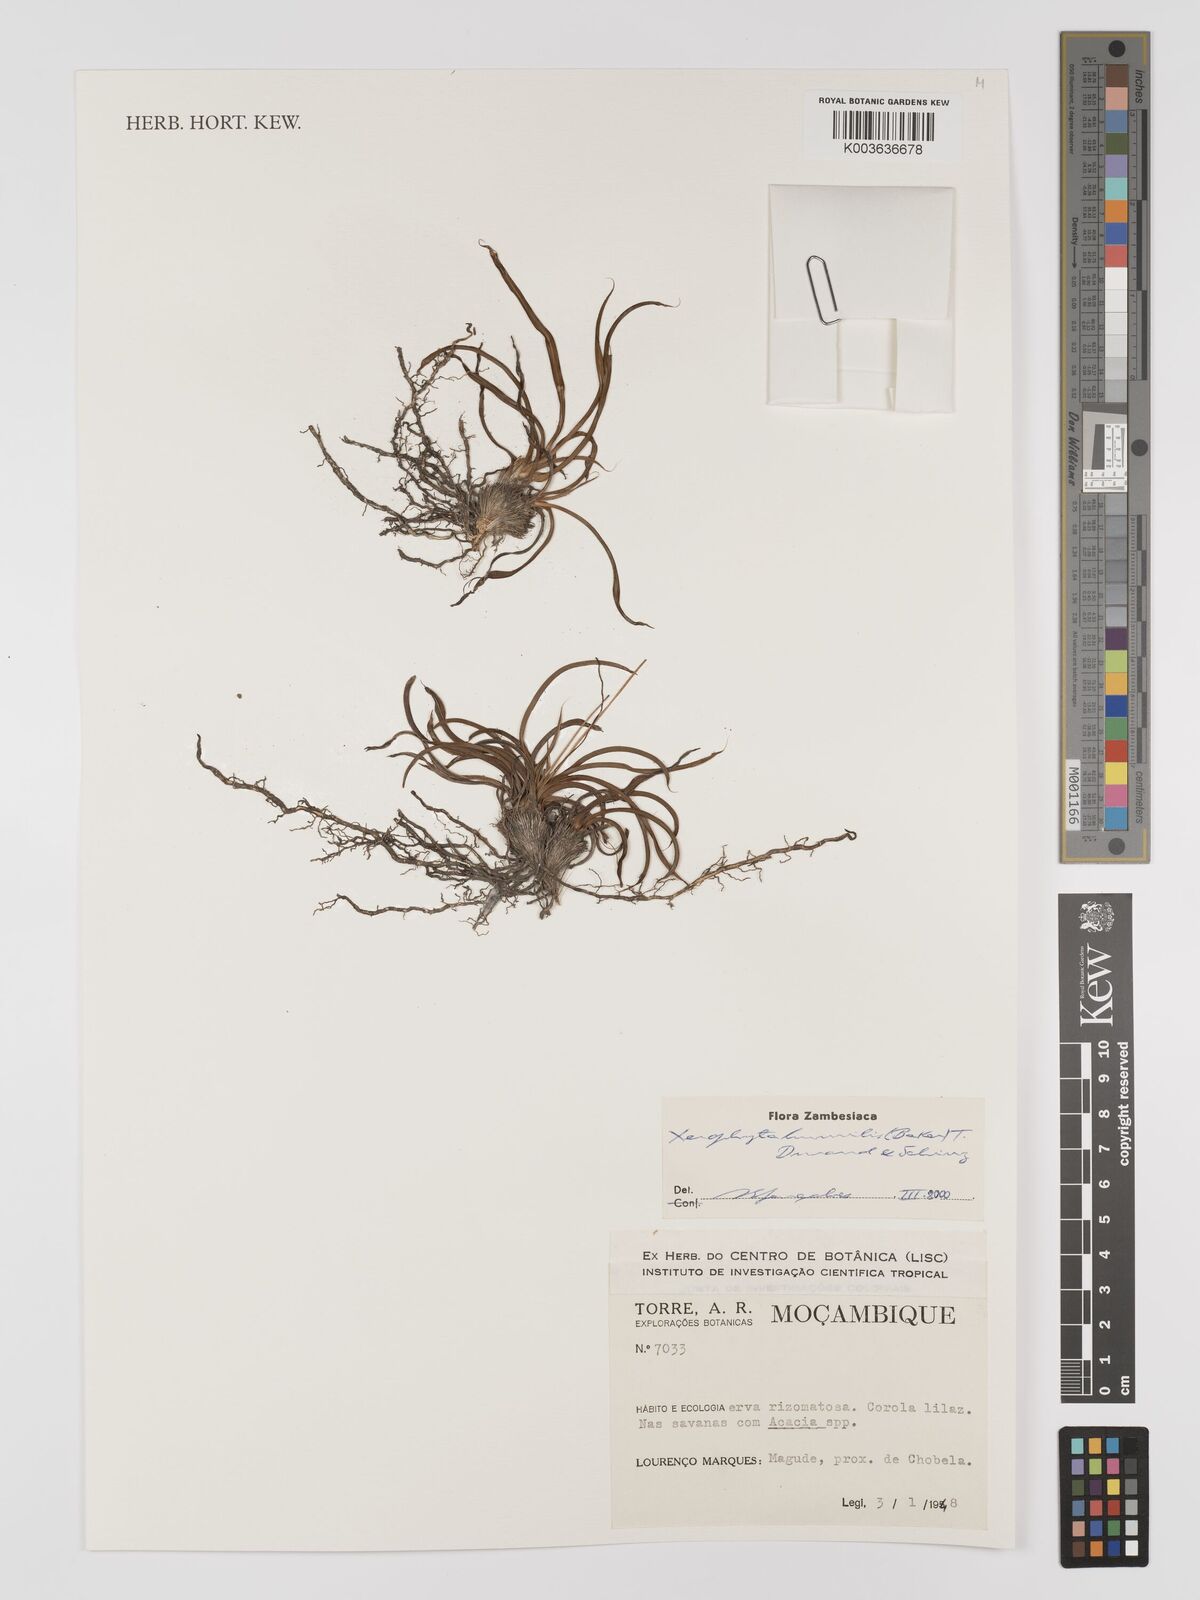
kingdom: Plantae
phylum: Tracheophyta
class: Liliopsida
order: Pandanales
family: Velloziaceae
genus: Xerophyta
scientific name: Xerophyta humilis
